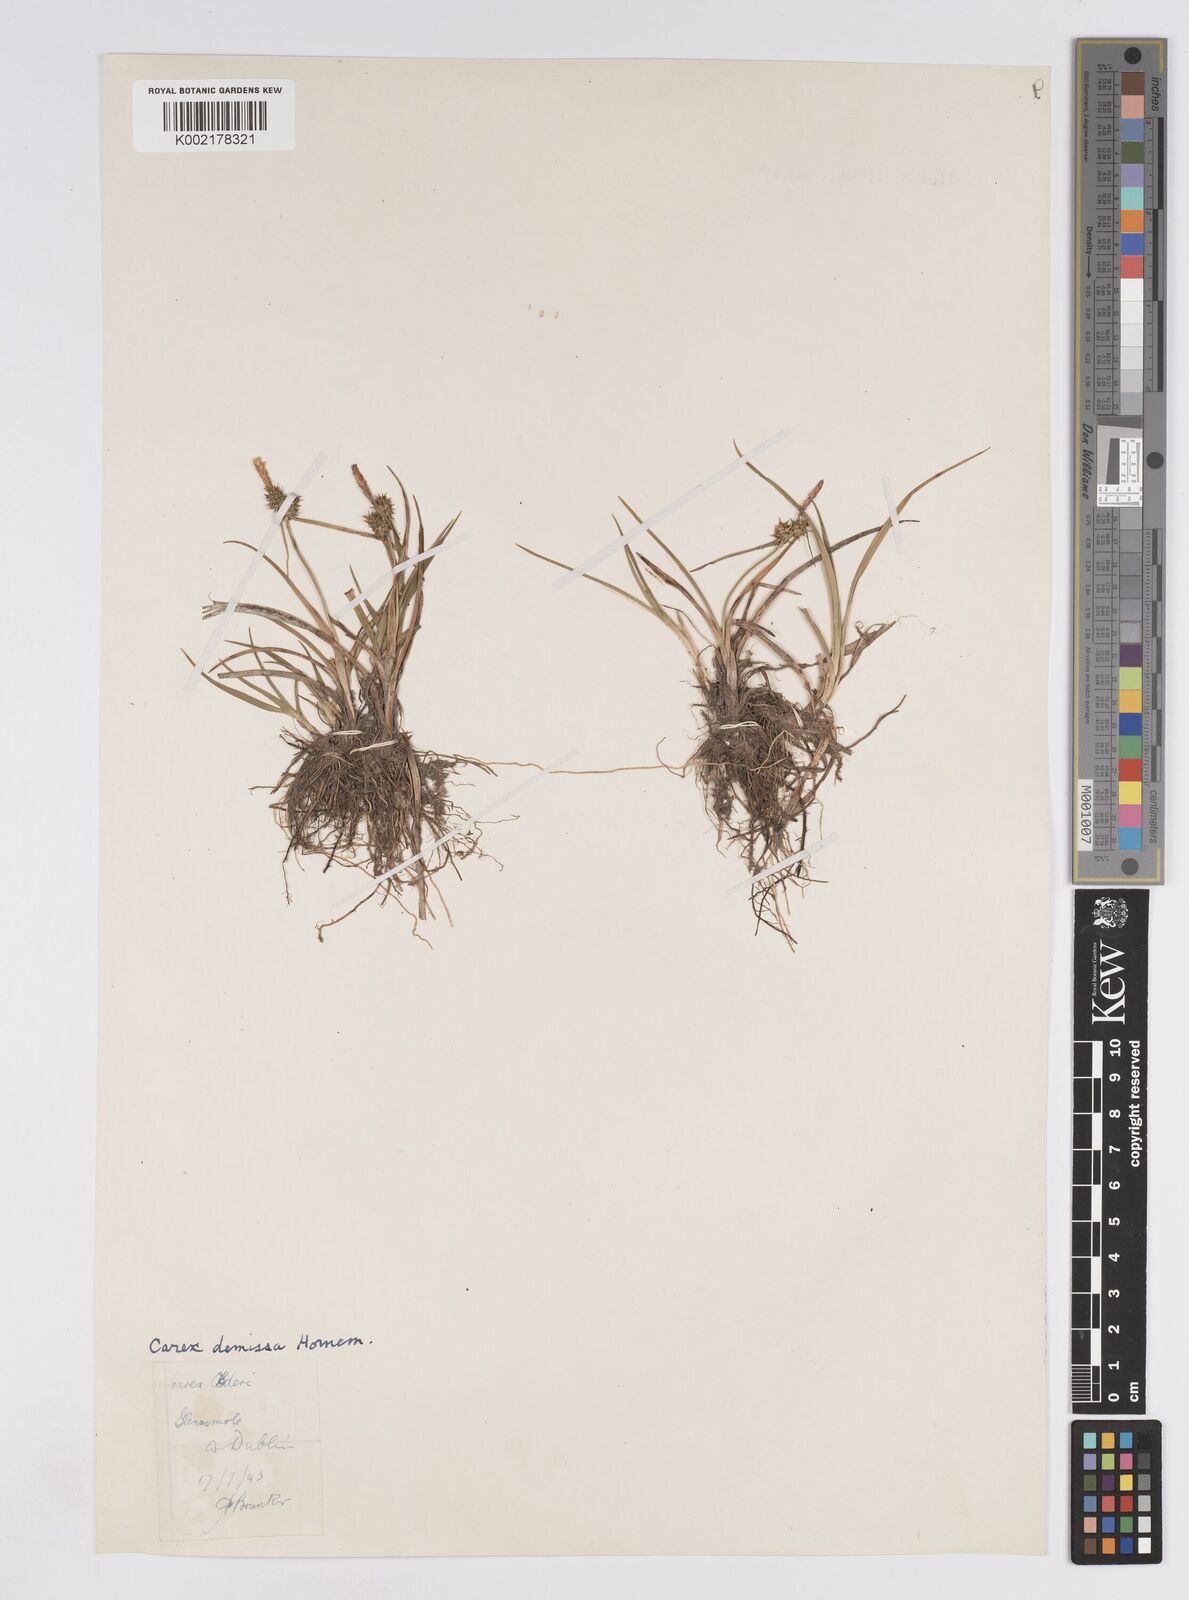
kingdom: Plantae
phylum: Tracheophyta
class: Liliopsida
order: Poales
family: Cyperaceae
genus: Carex
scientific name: Carex demissa
